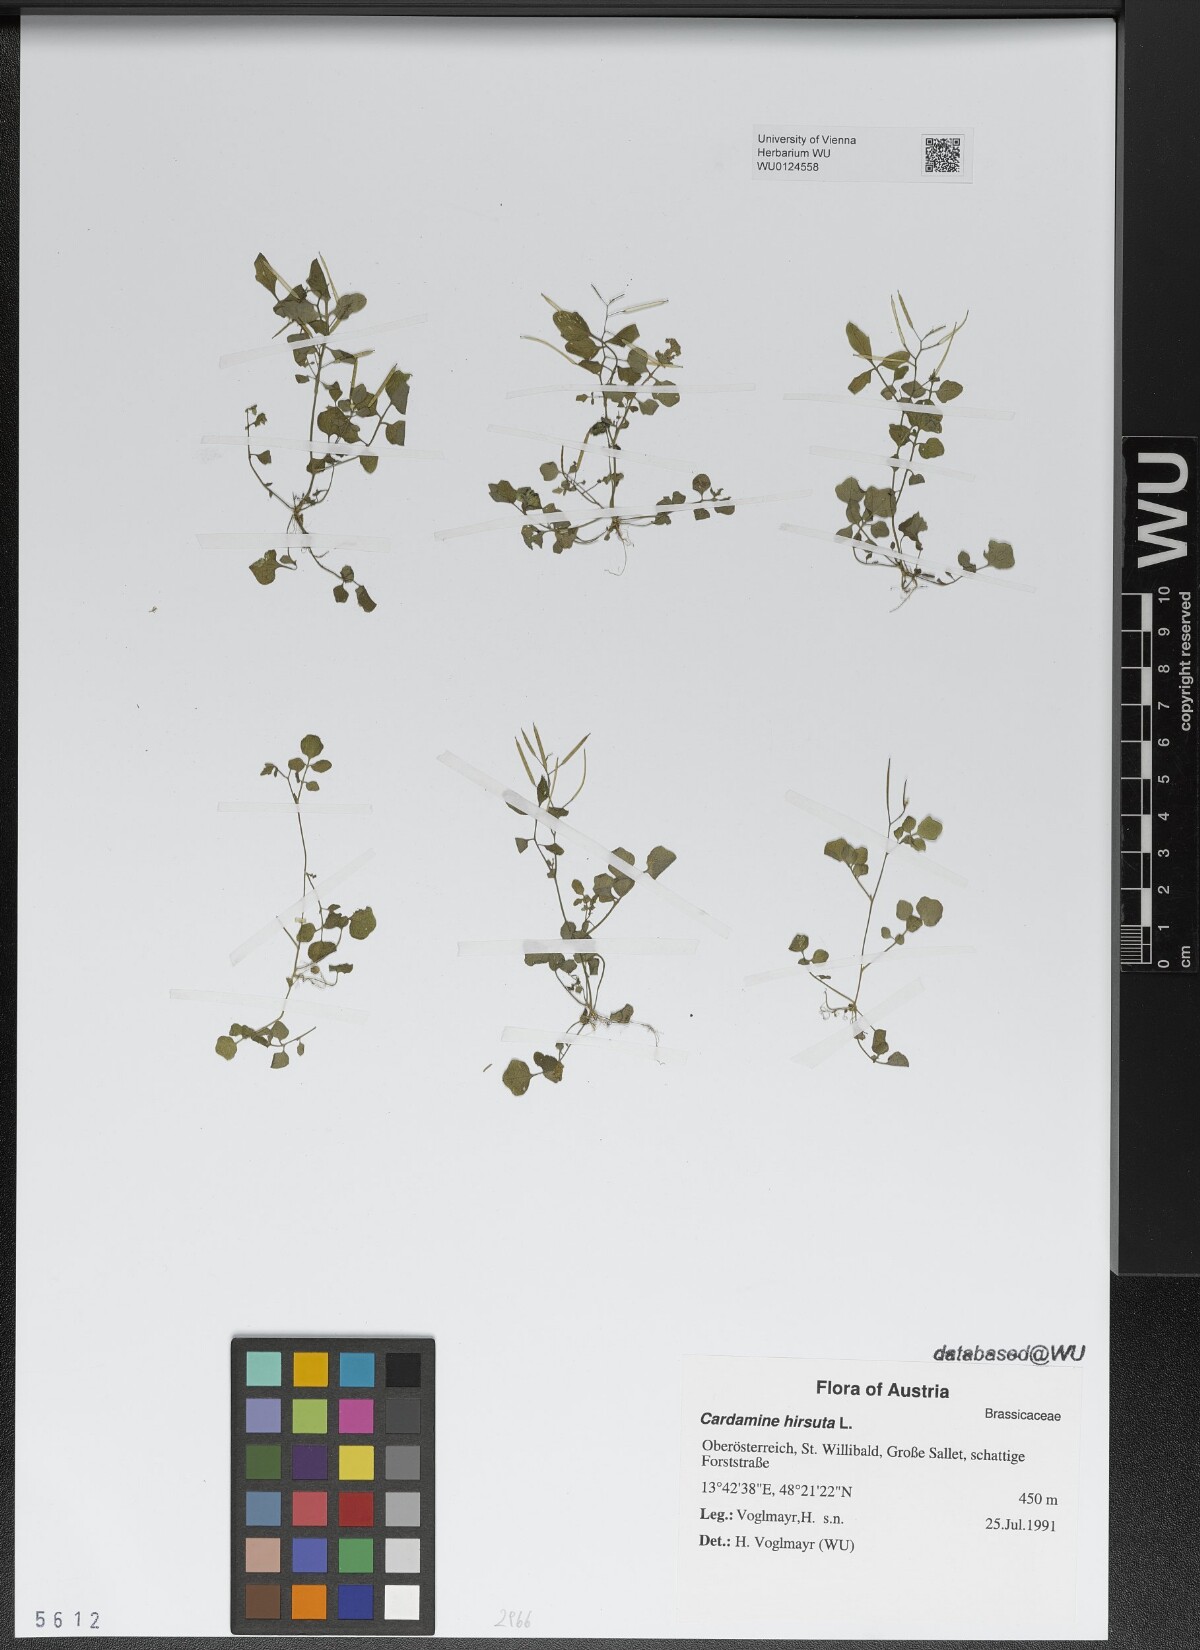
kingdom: Plantae
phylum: Tracheophyta
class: Magnoliopsida
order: Brassicales
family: Brassicaceae
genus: Cardamine
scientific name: Cardamine hirsuta
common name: Hairy bittercress
